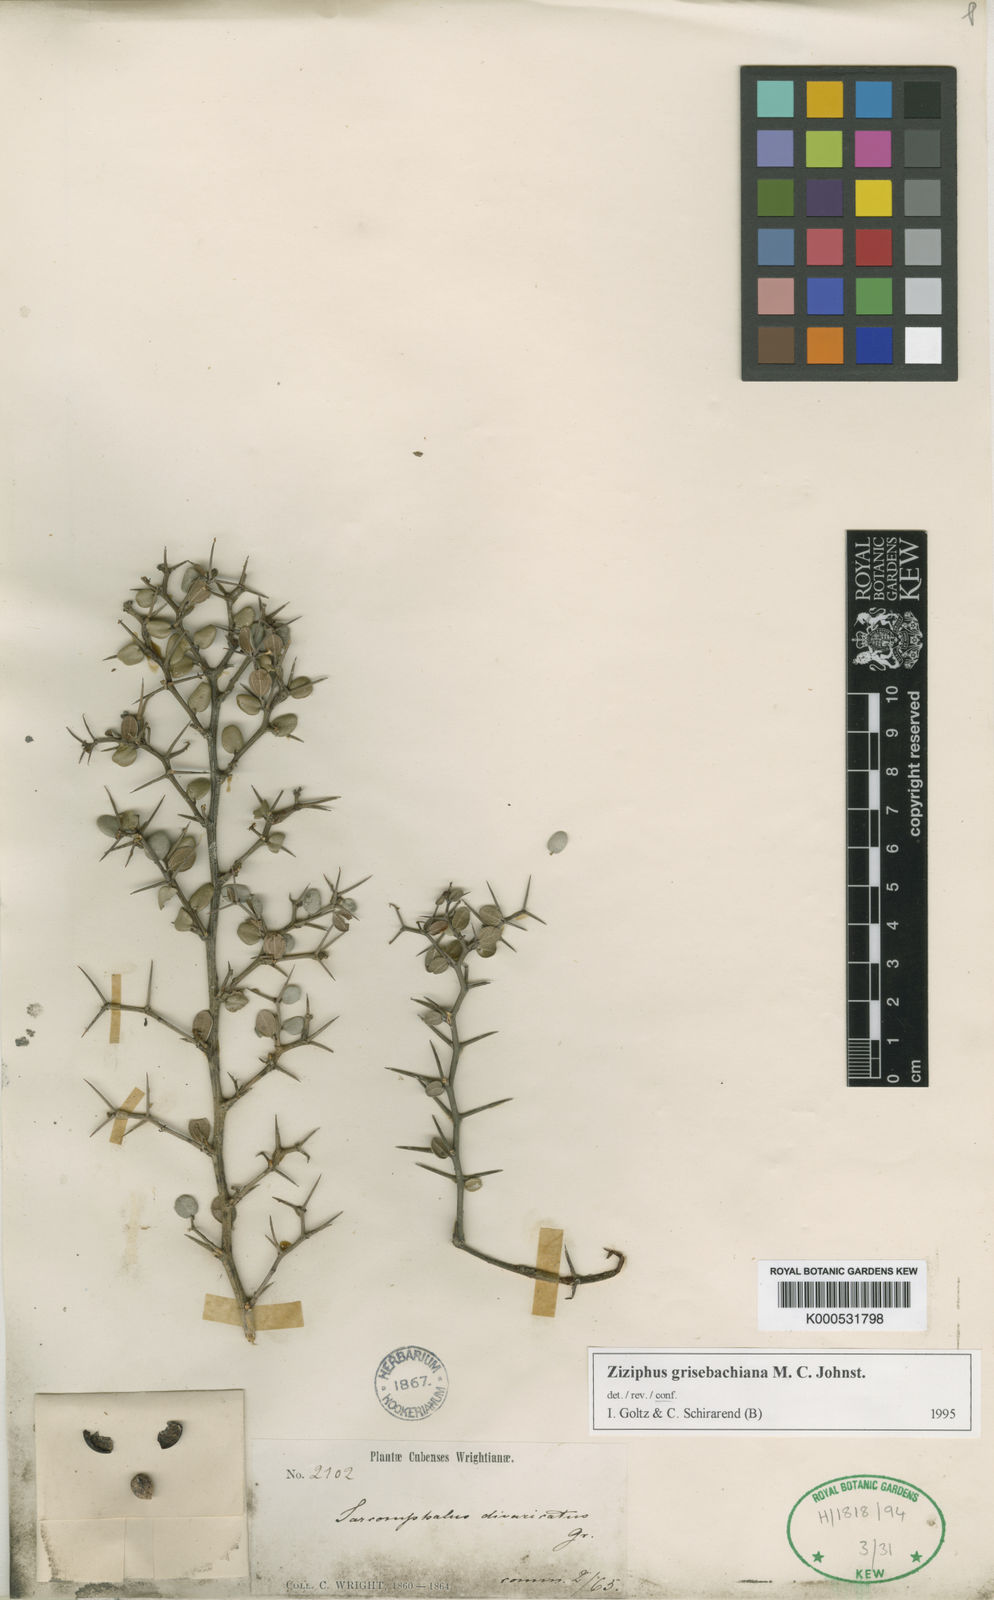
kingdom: Plantae
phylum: Tracheophyta
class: Magnoliopsida
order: Rosales
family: Rhamnaceae
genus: Sarcomphalus
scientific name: Sarcomphalus divaricatus
